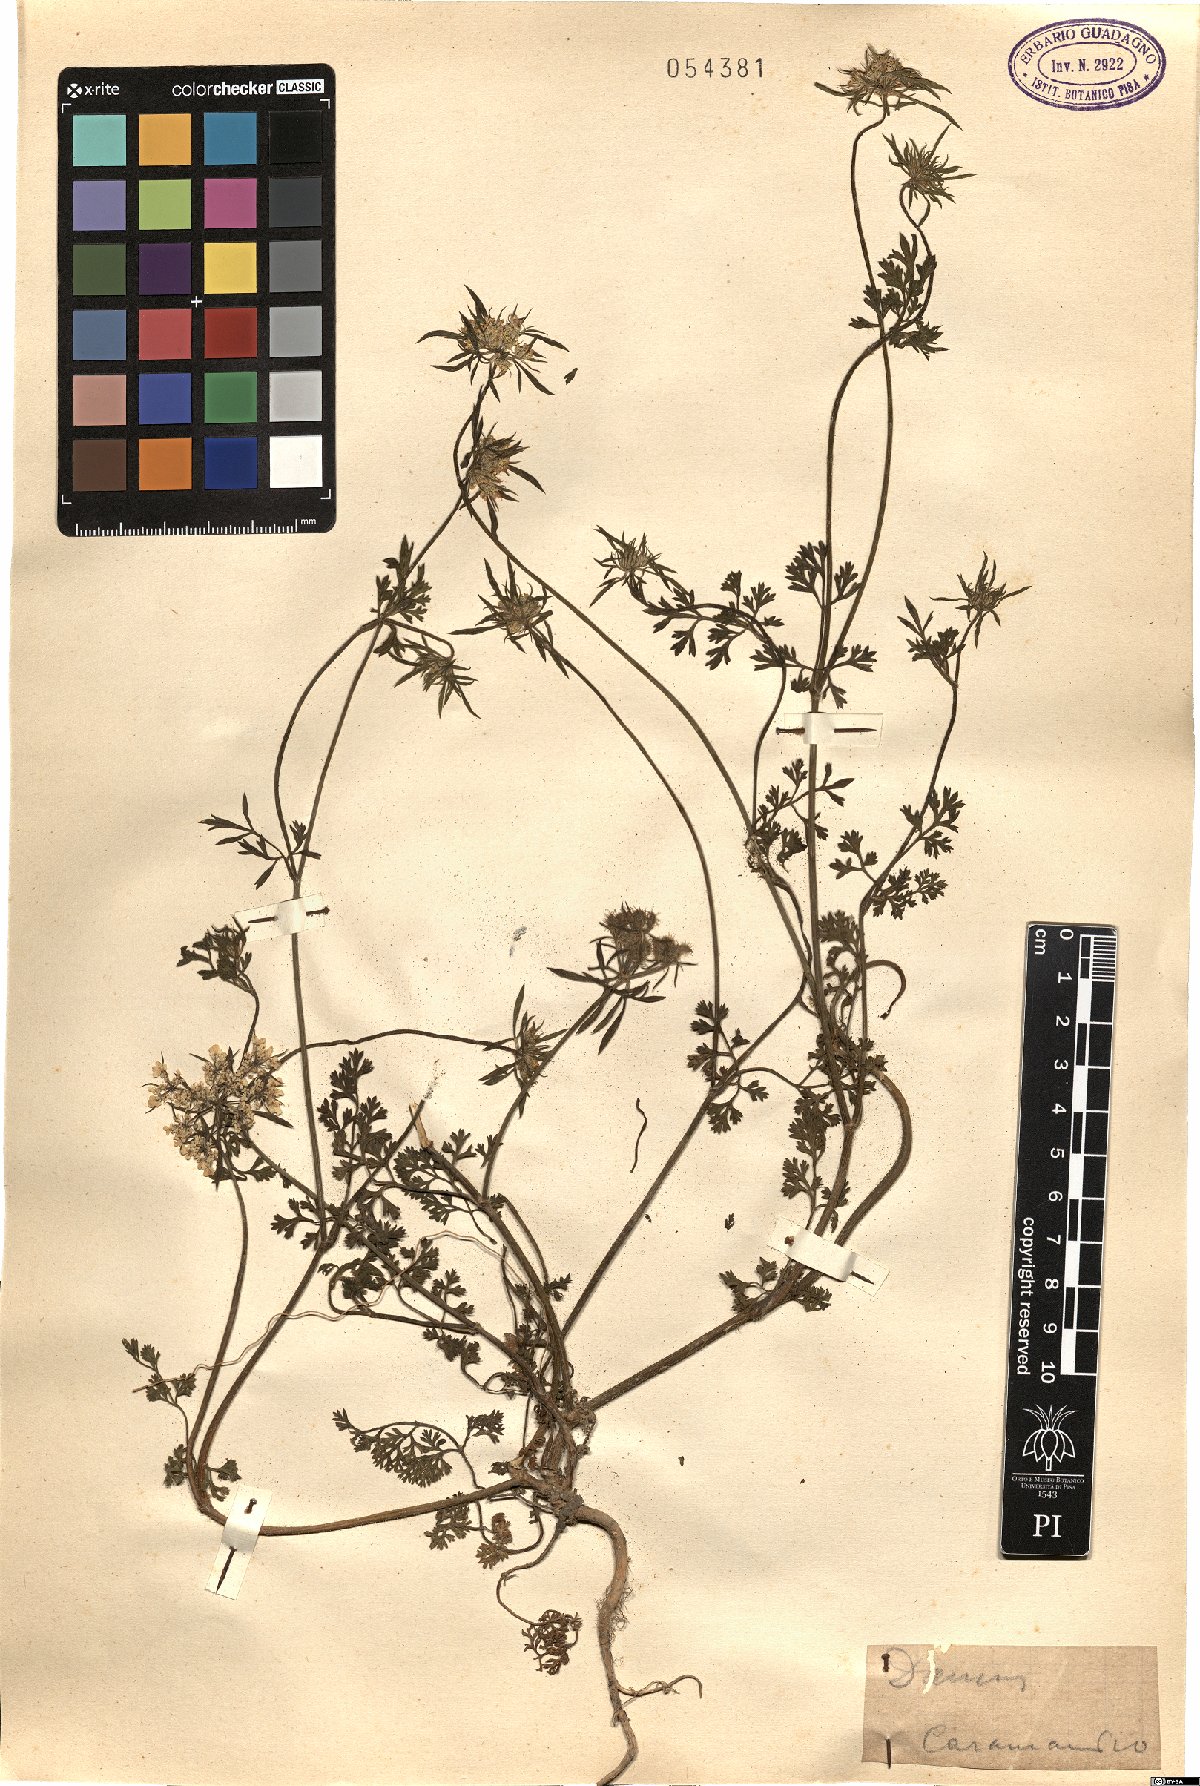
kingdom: Plantae
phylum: Tracheophyta
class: Magnoliopsida
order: Apiales
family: Apiaceae
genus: Daucus
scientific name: Daucus
